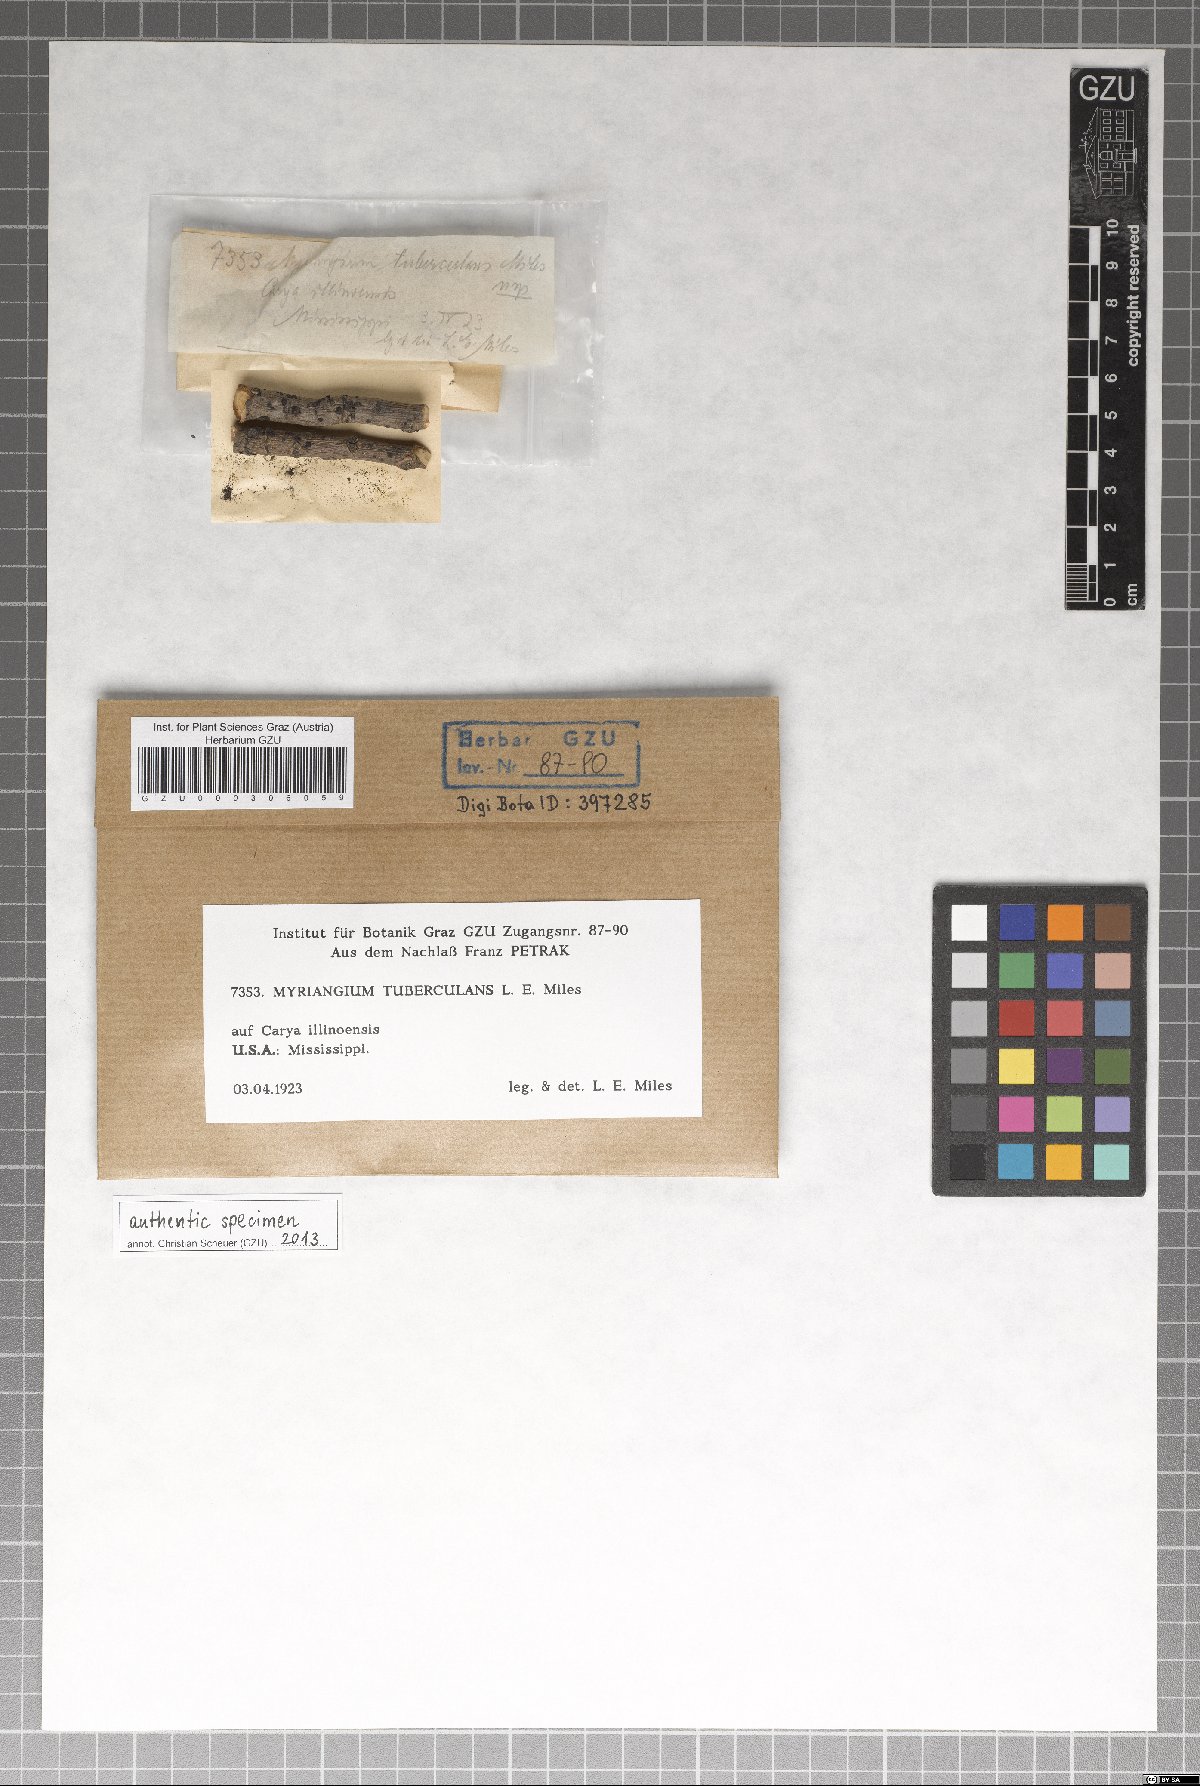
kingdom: Fungi
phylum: Ascomycota
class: Dothideomycetes
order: Myriangiales
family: Myriangiaceae
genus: Myriangium
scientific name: Myriangium tuberculans
